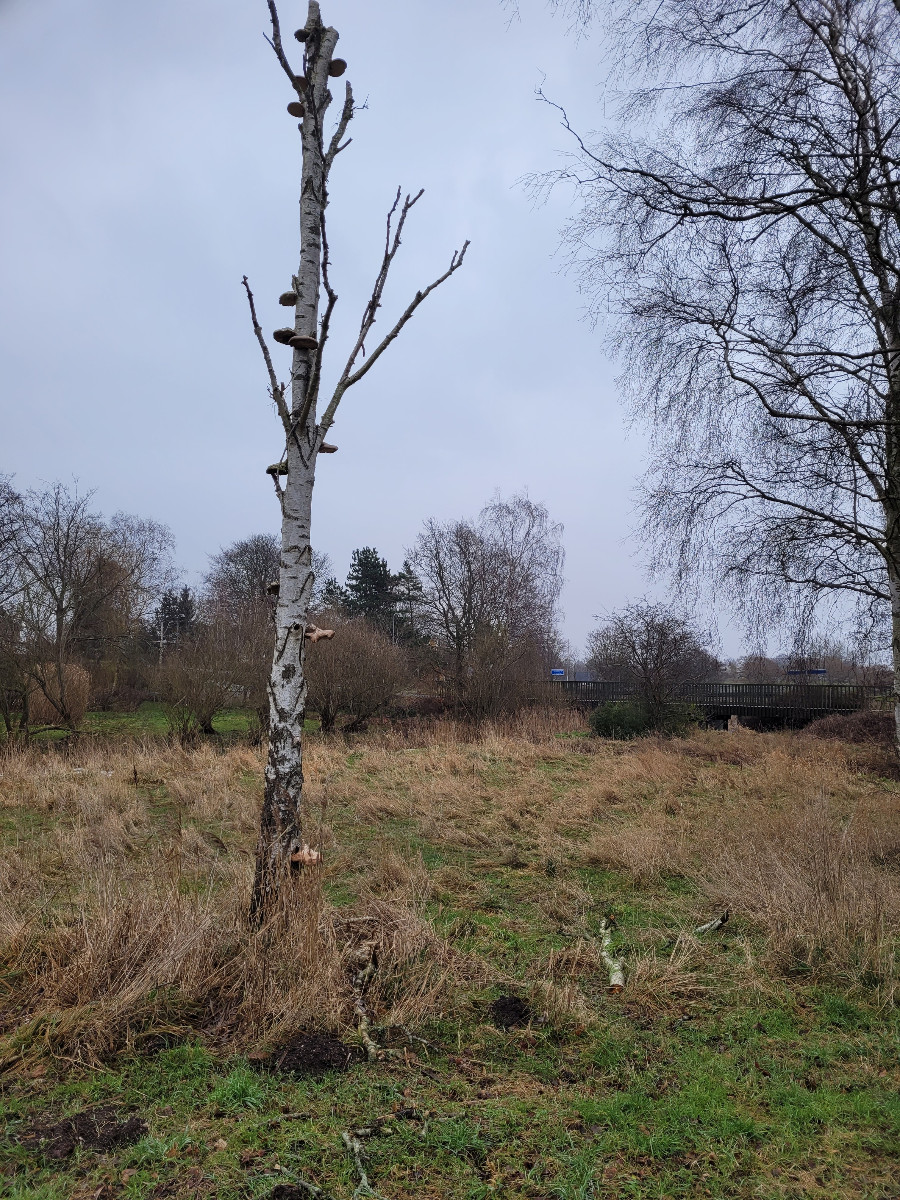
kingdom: Fungi
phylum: Basidiomycota
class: Agaricomycetes
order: Polyporales
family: Fomitopsidaceae
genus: Fomitopsis
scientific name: Fomitopsis betulina
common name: birkeporesvamp
